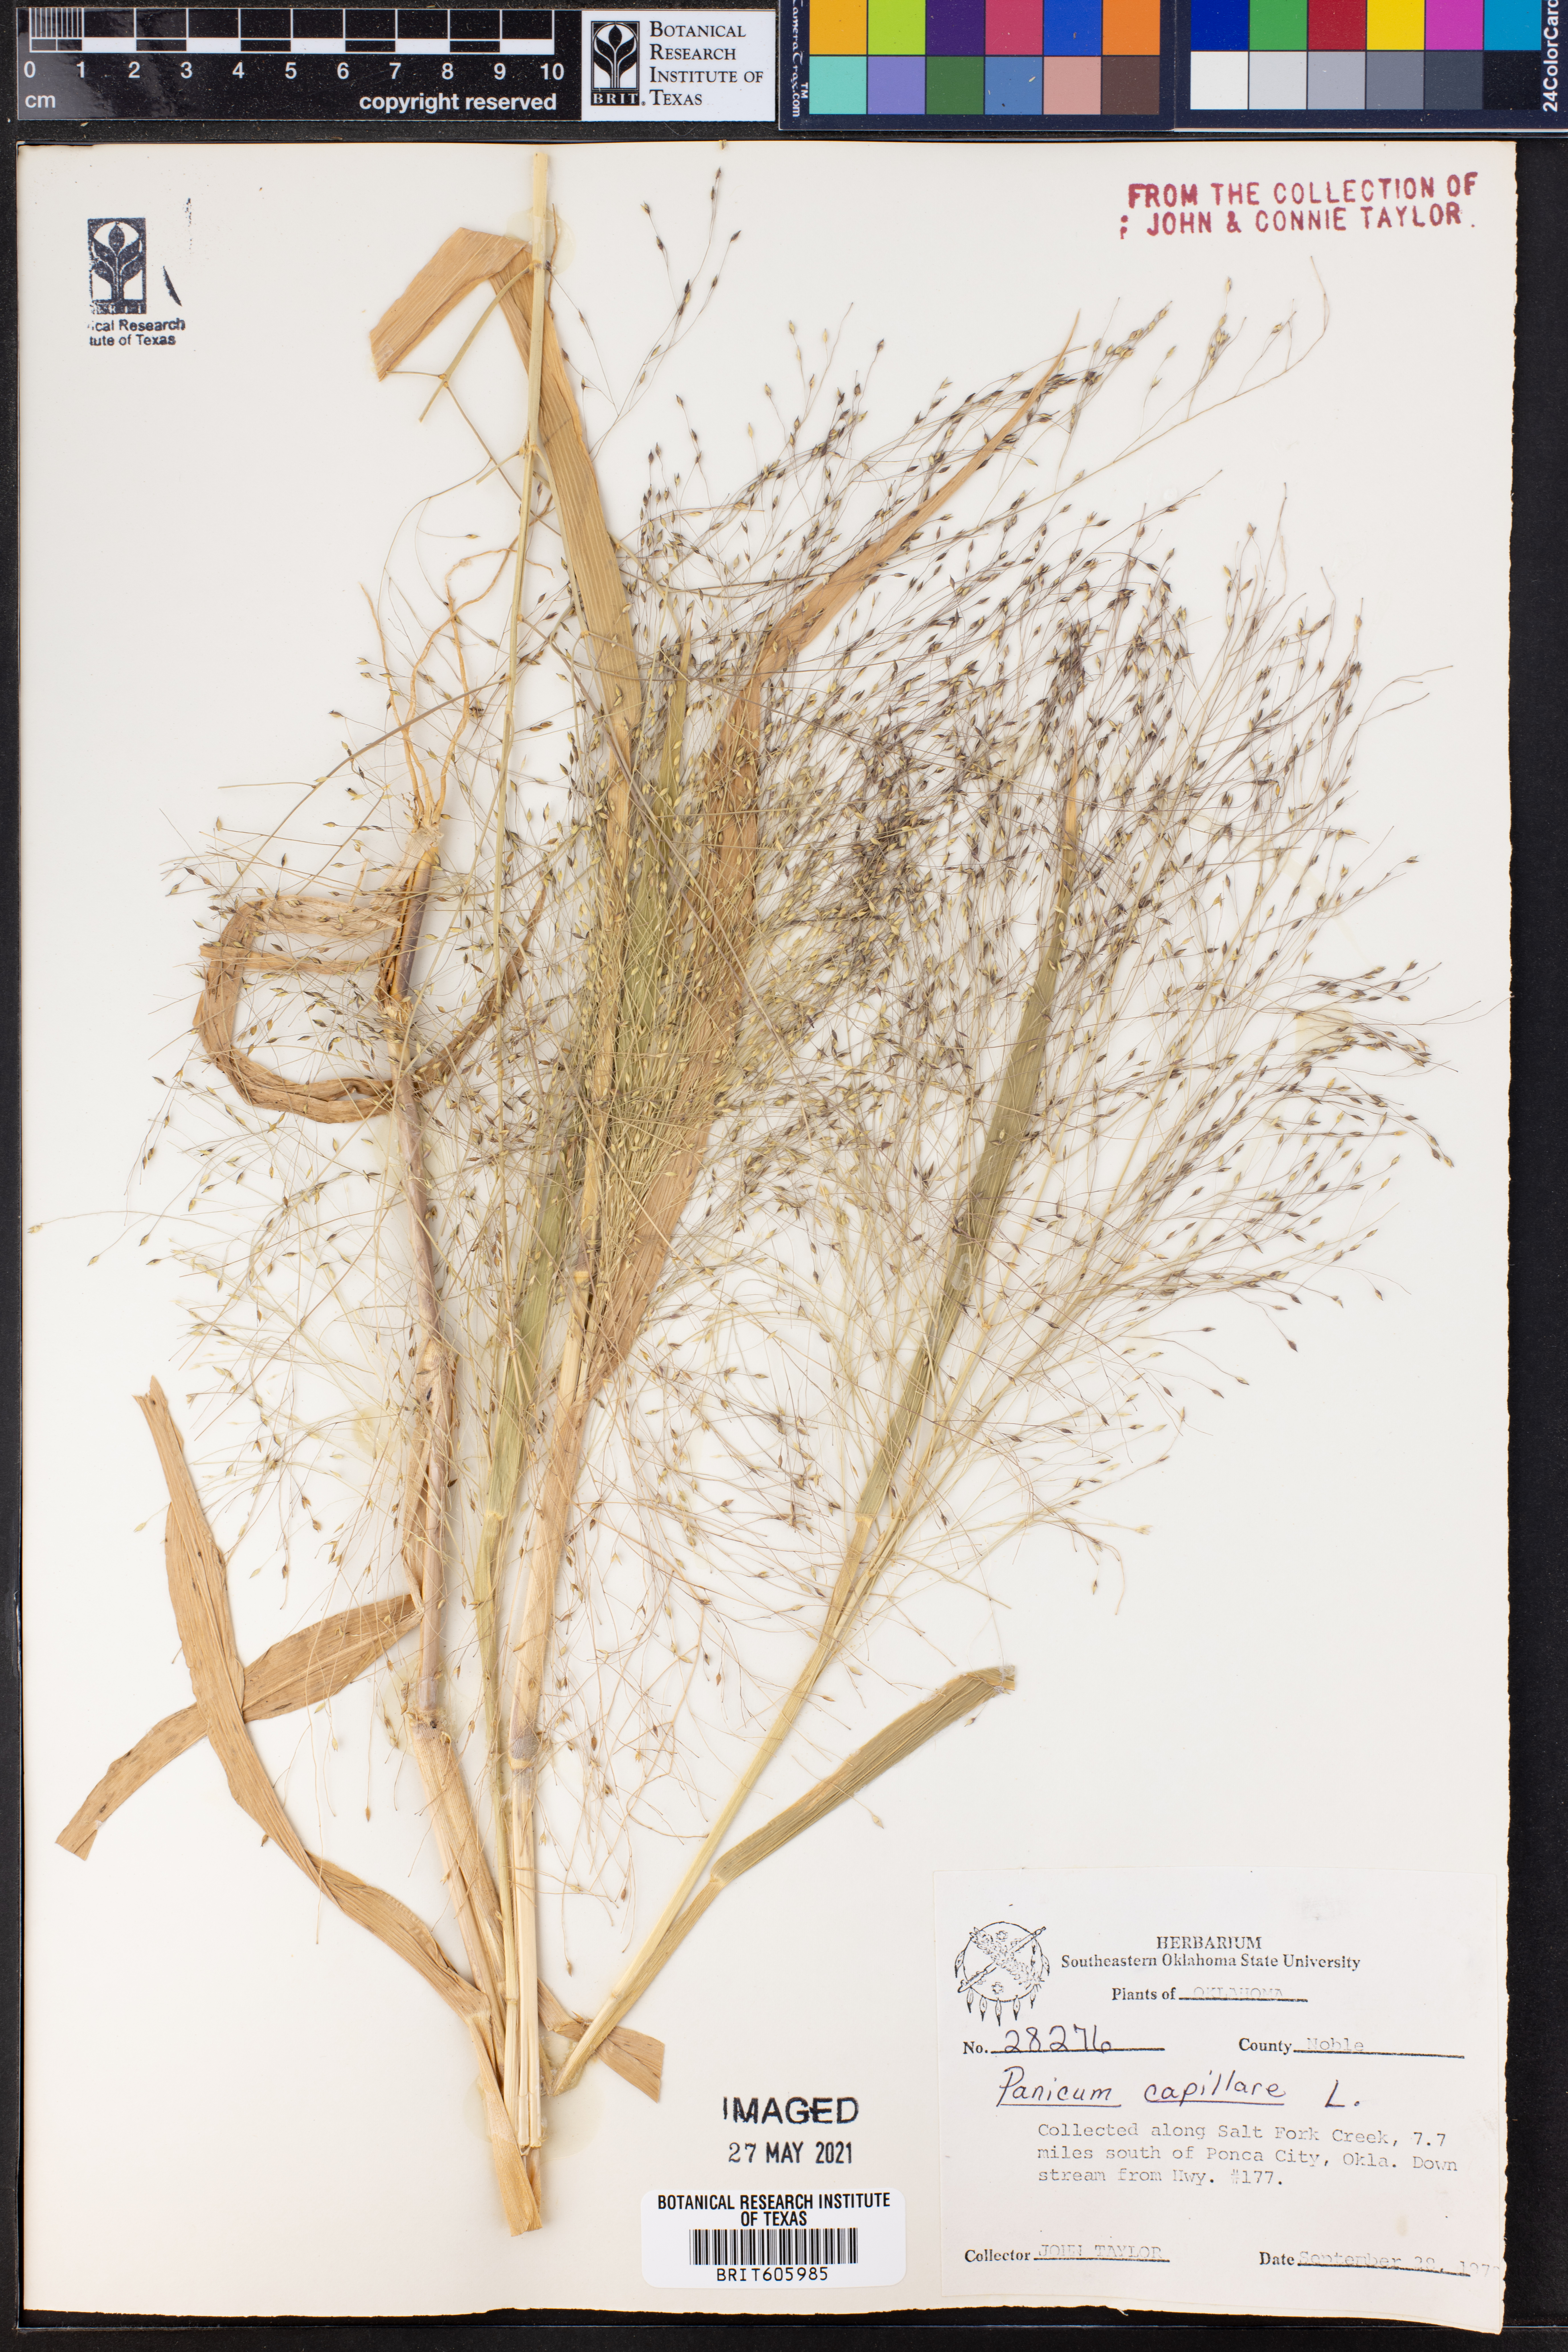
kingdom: Plantae
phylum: Tracheophyta
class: Liliopsida
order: Poales
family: Poaceae
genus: Panicum
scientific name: Panicum capillare
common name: Witch-grass
